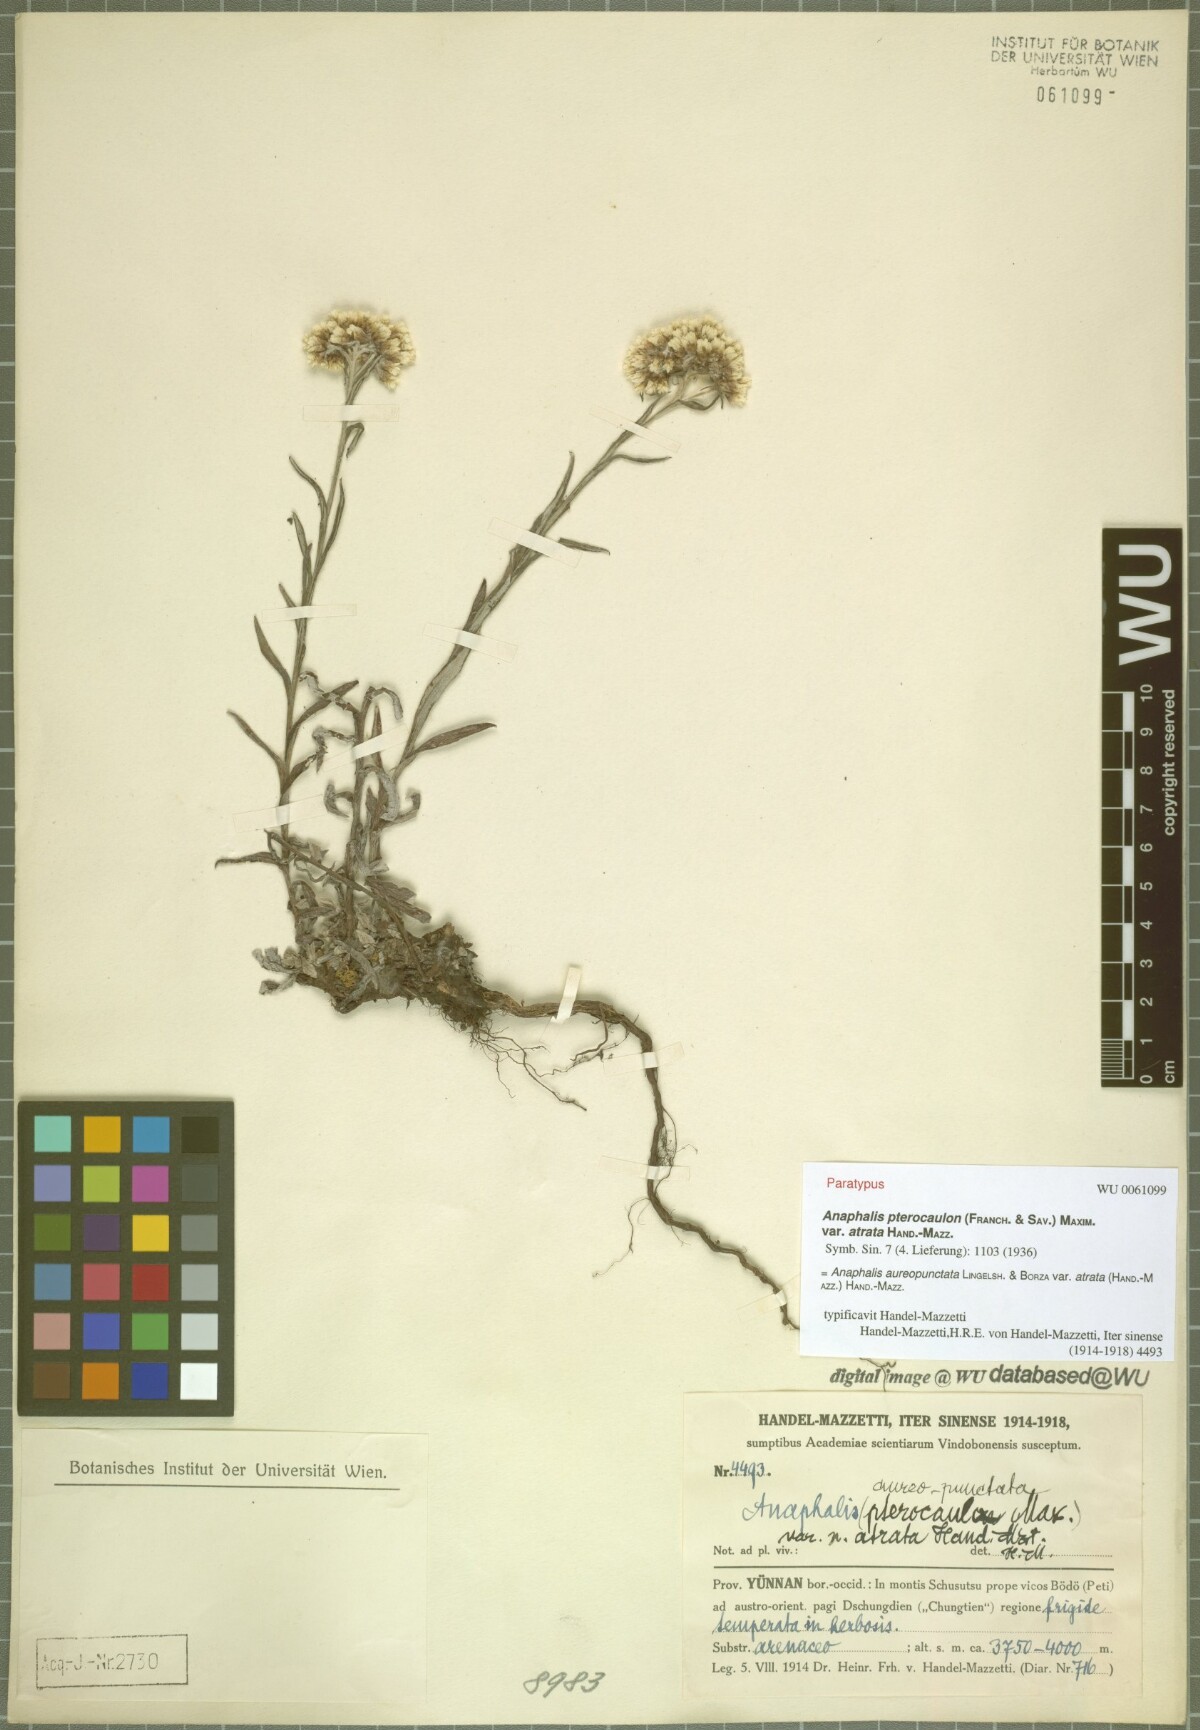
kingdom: Plantae
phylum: Tracheophyta
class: Magnoliopsida
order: Asterales
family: Asteraceae
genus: Anaphalis
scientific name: Anaphalis aureopunctata
